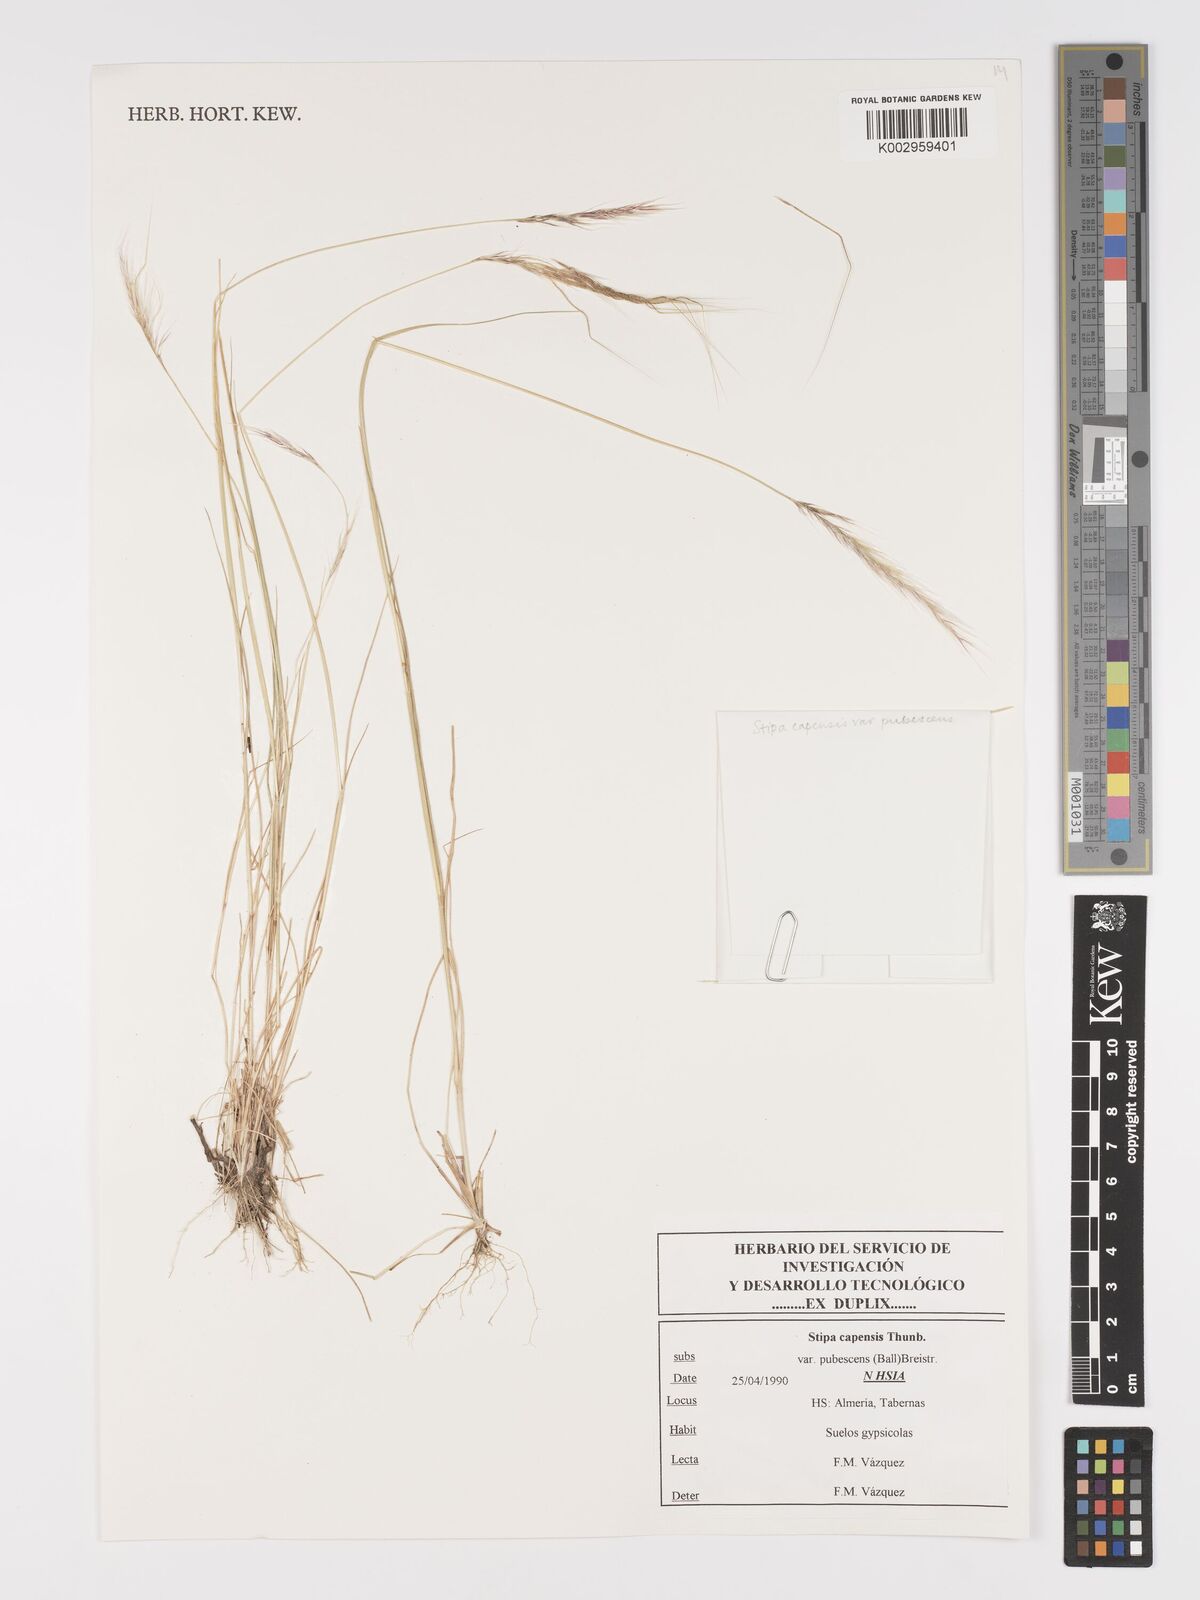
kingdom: Plantae
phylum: Tracheophyta
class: Liliopsida
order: Poales
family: Poaceae
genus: Stipellula
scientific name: Stipellula capensis
